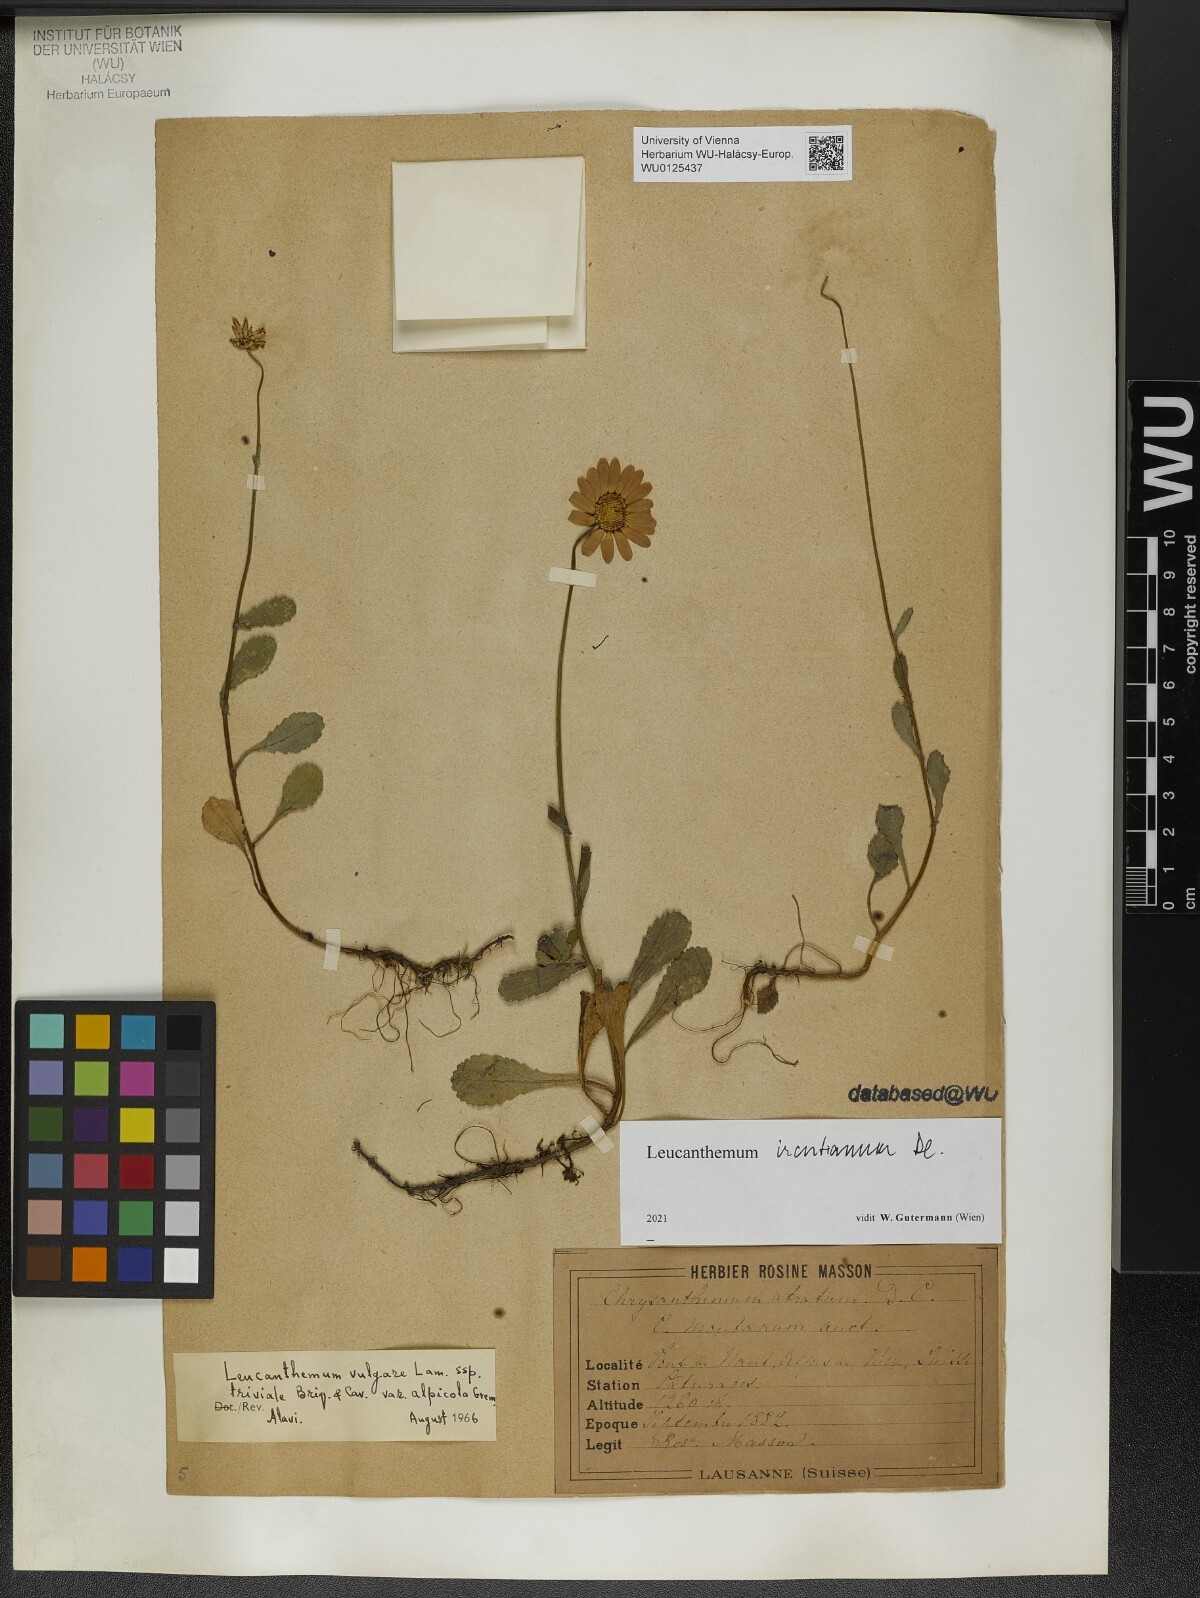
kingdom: Plantae
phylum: Tracheophyta
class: Magnoliopsida
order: Asterales
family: Asteraceae
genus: Leucanthemum
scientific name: Leucanthemum ircutianum
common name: Daisy
